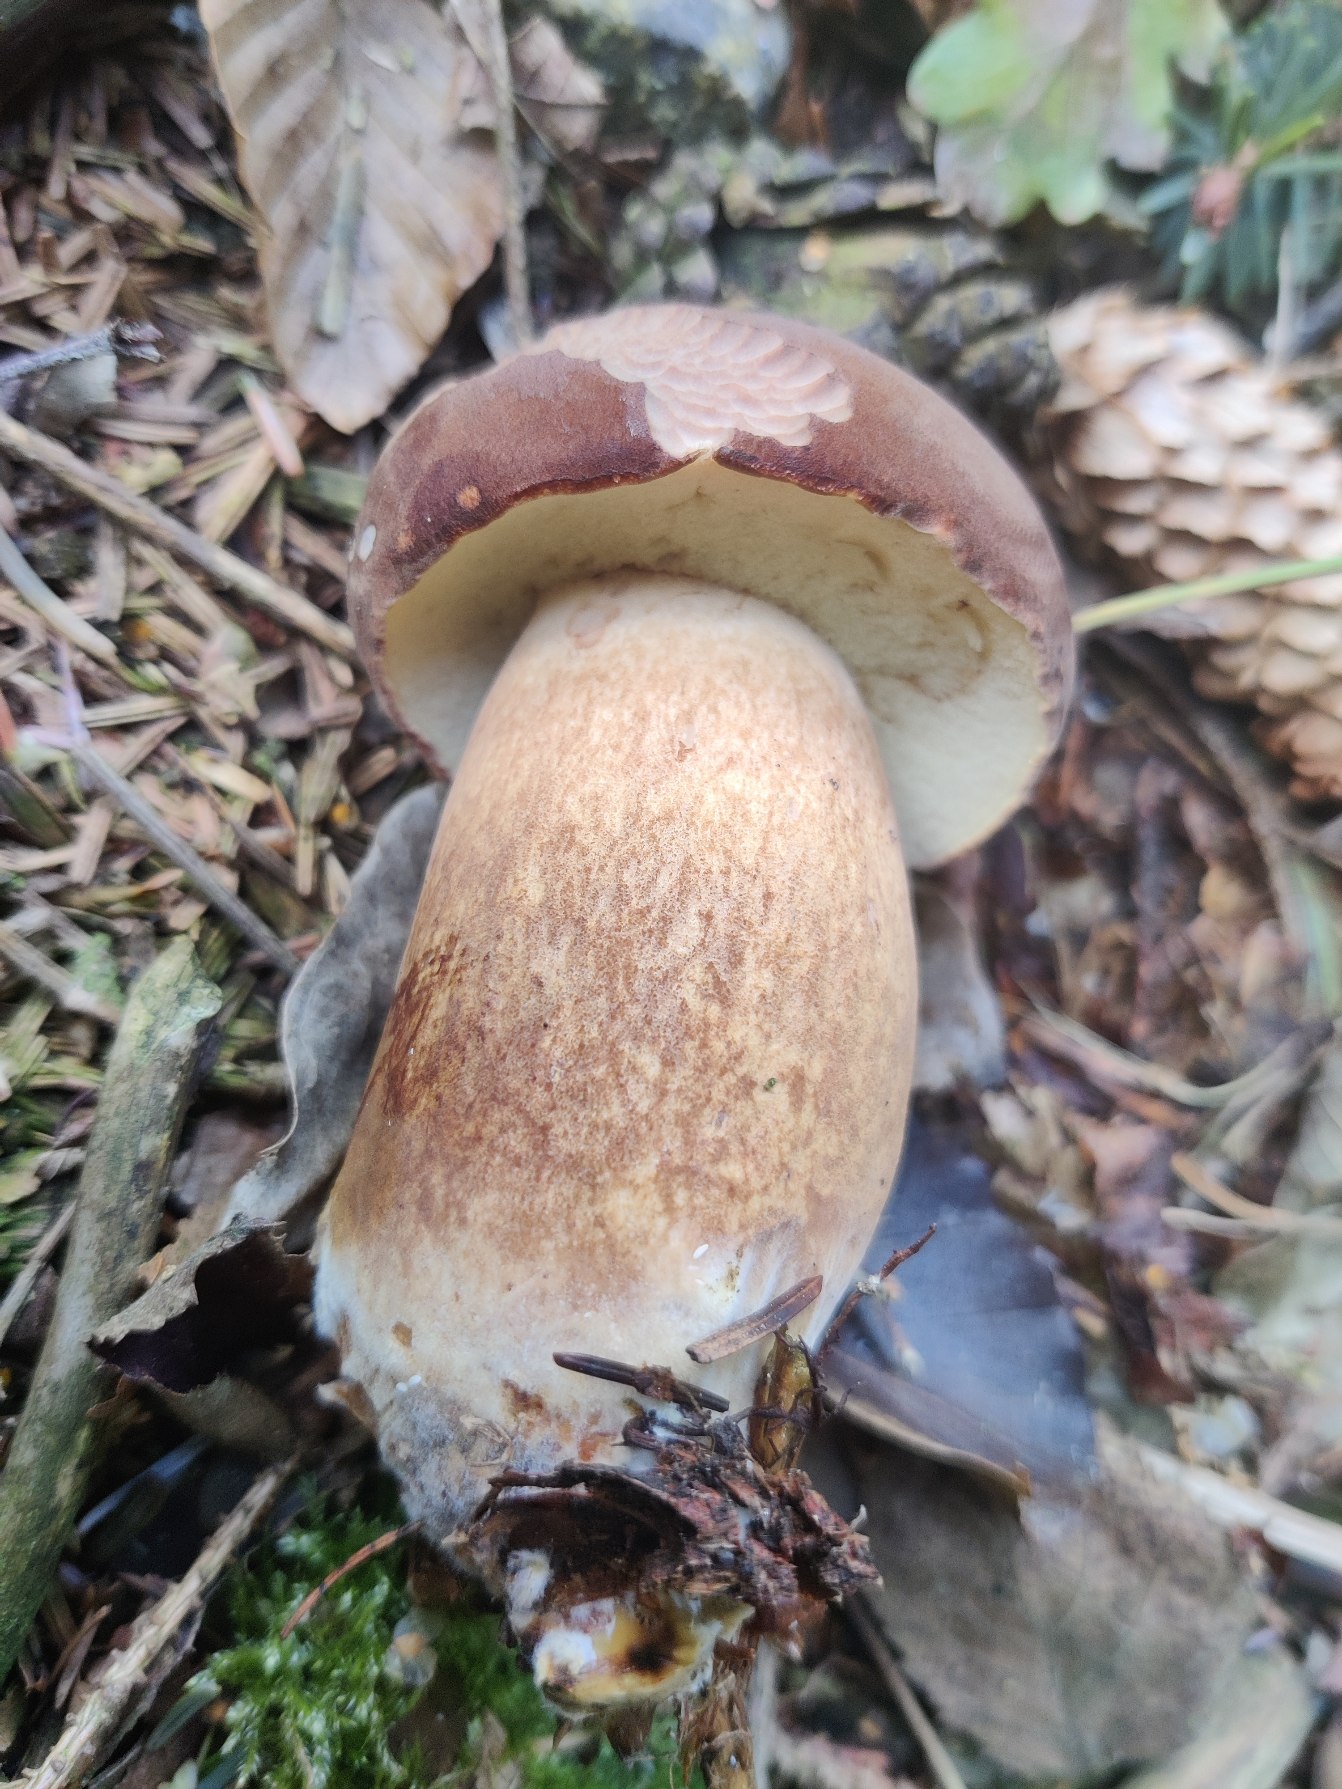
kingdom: Fungi
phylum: Basidiomycota
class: Agaricomycetes
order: Boletales
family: Boletaceae
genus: Imleria
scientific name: Imleria badia
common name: Brunstokket rørhat
